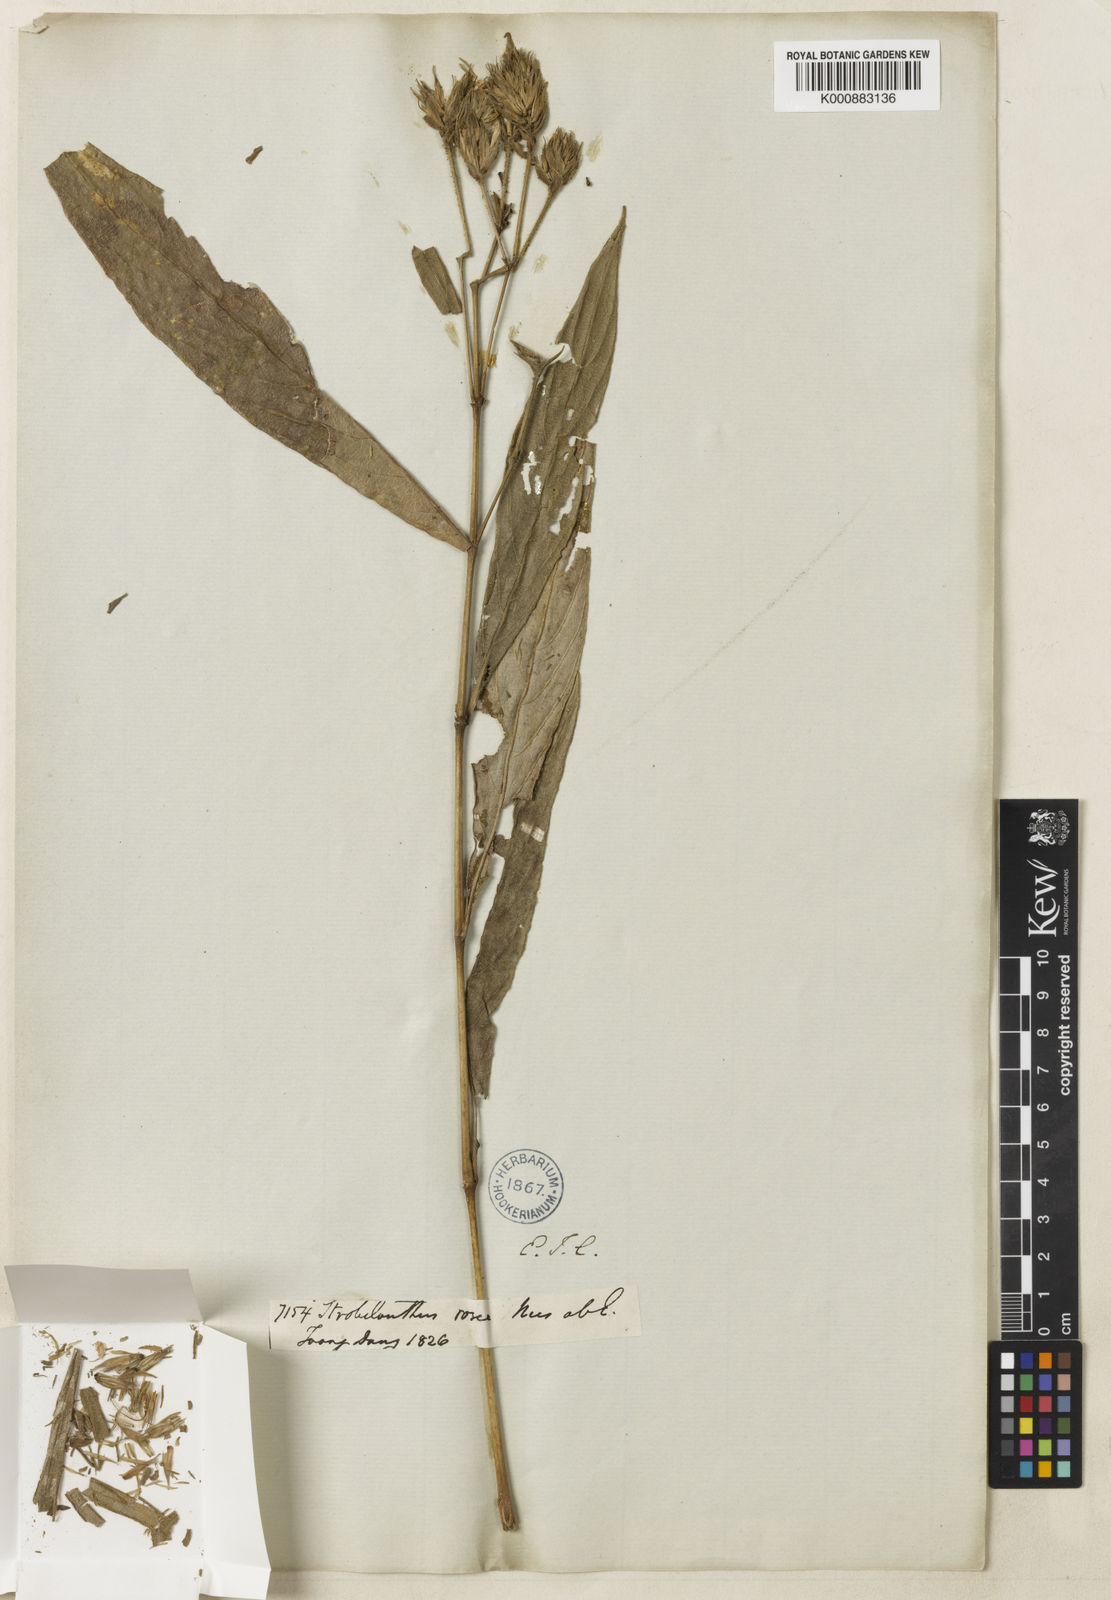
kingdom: Plantae
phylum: Tracheophyta
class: Magnoliopsida
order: Lamiales
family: Acanthaceae
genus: Strobilanthes
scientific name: Strobilanthes
